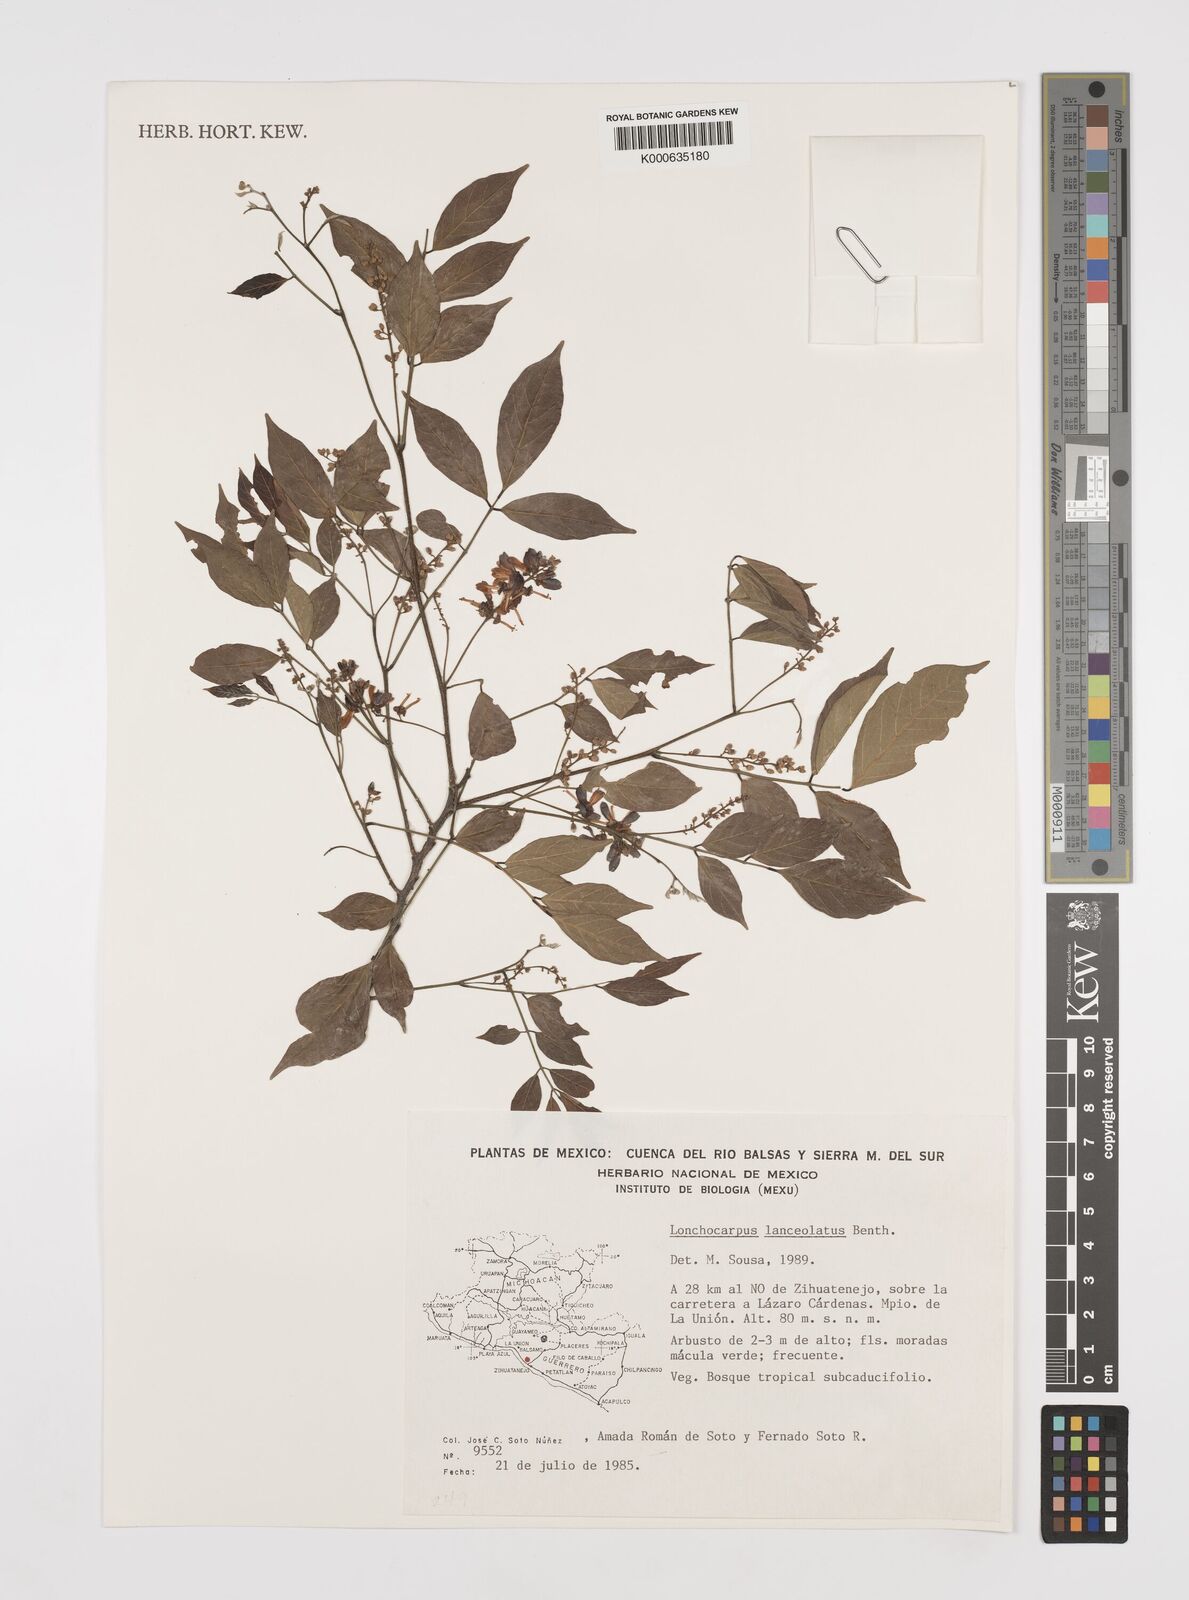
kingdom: Plantae
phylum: Tracheophyta
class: Magnoliopsida
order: Fabales
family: Fabaceae
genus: Lonchocarpus
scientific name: Lonchocarpus lanceolatus
